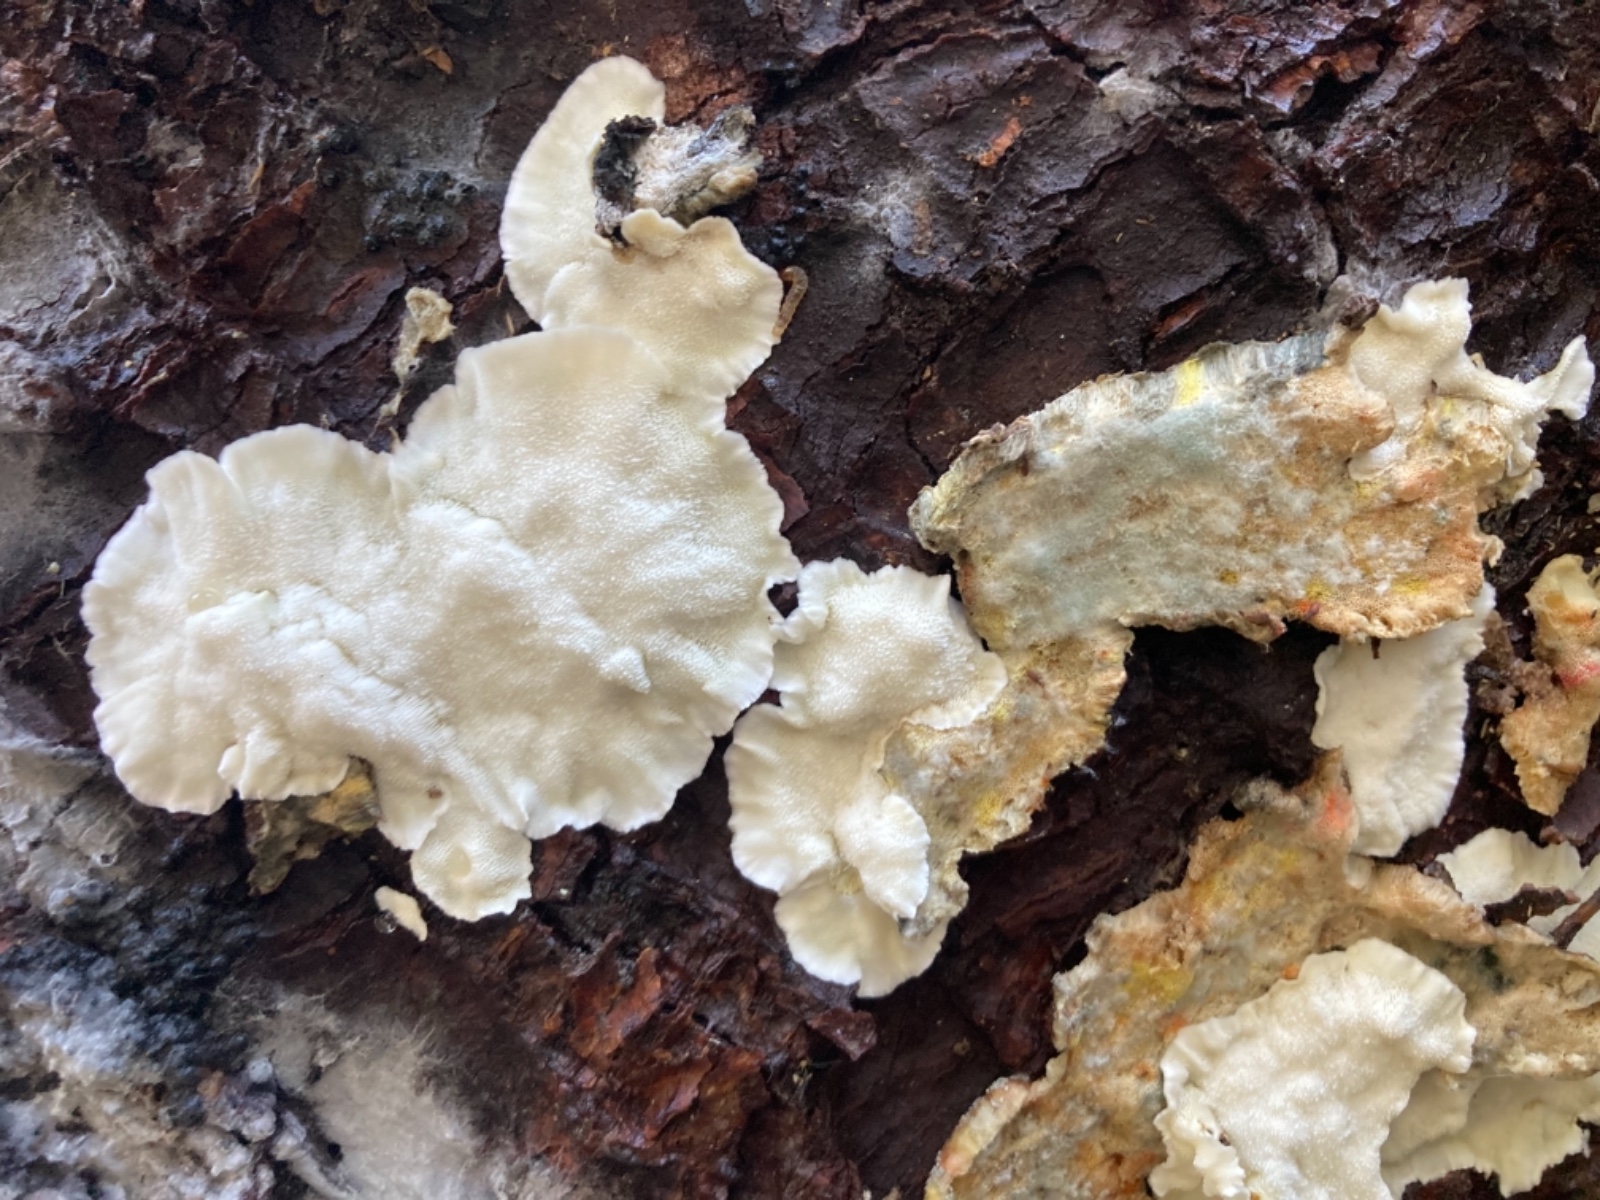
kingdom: Fungi
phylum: Basidiomycota
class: Agaricomycetes
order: Polyporales
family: Dacryobolaceae
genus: Oligoporus
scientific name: Oligoporus wakefieldiae
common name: række-kødporesvamp
